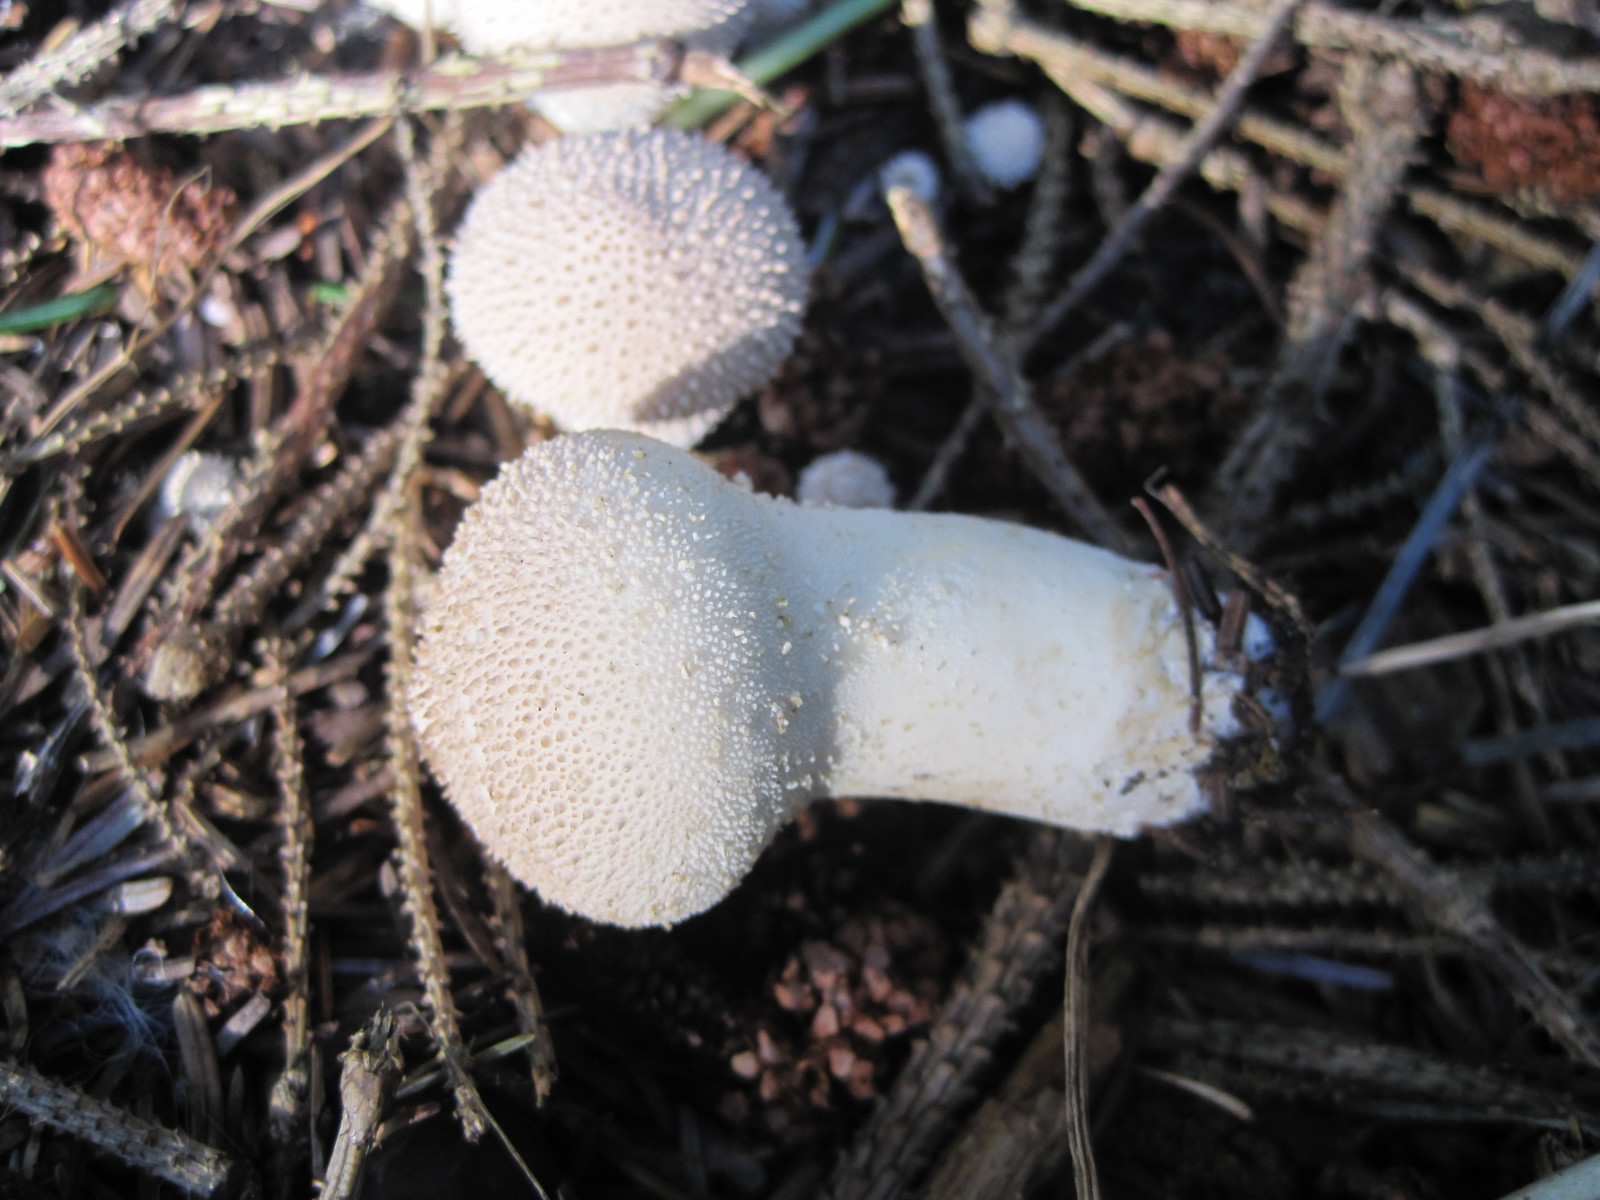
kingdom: Fungi
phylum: Basidiomycota
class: Agaricomycetes
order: Agaricales
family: Lycoperdaceae
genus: Lycoperdon
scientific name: Lycoperdon perlatum
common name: krystal-støvbold
